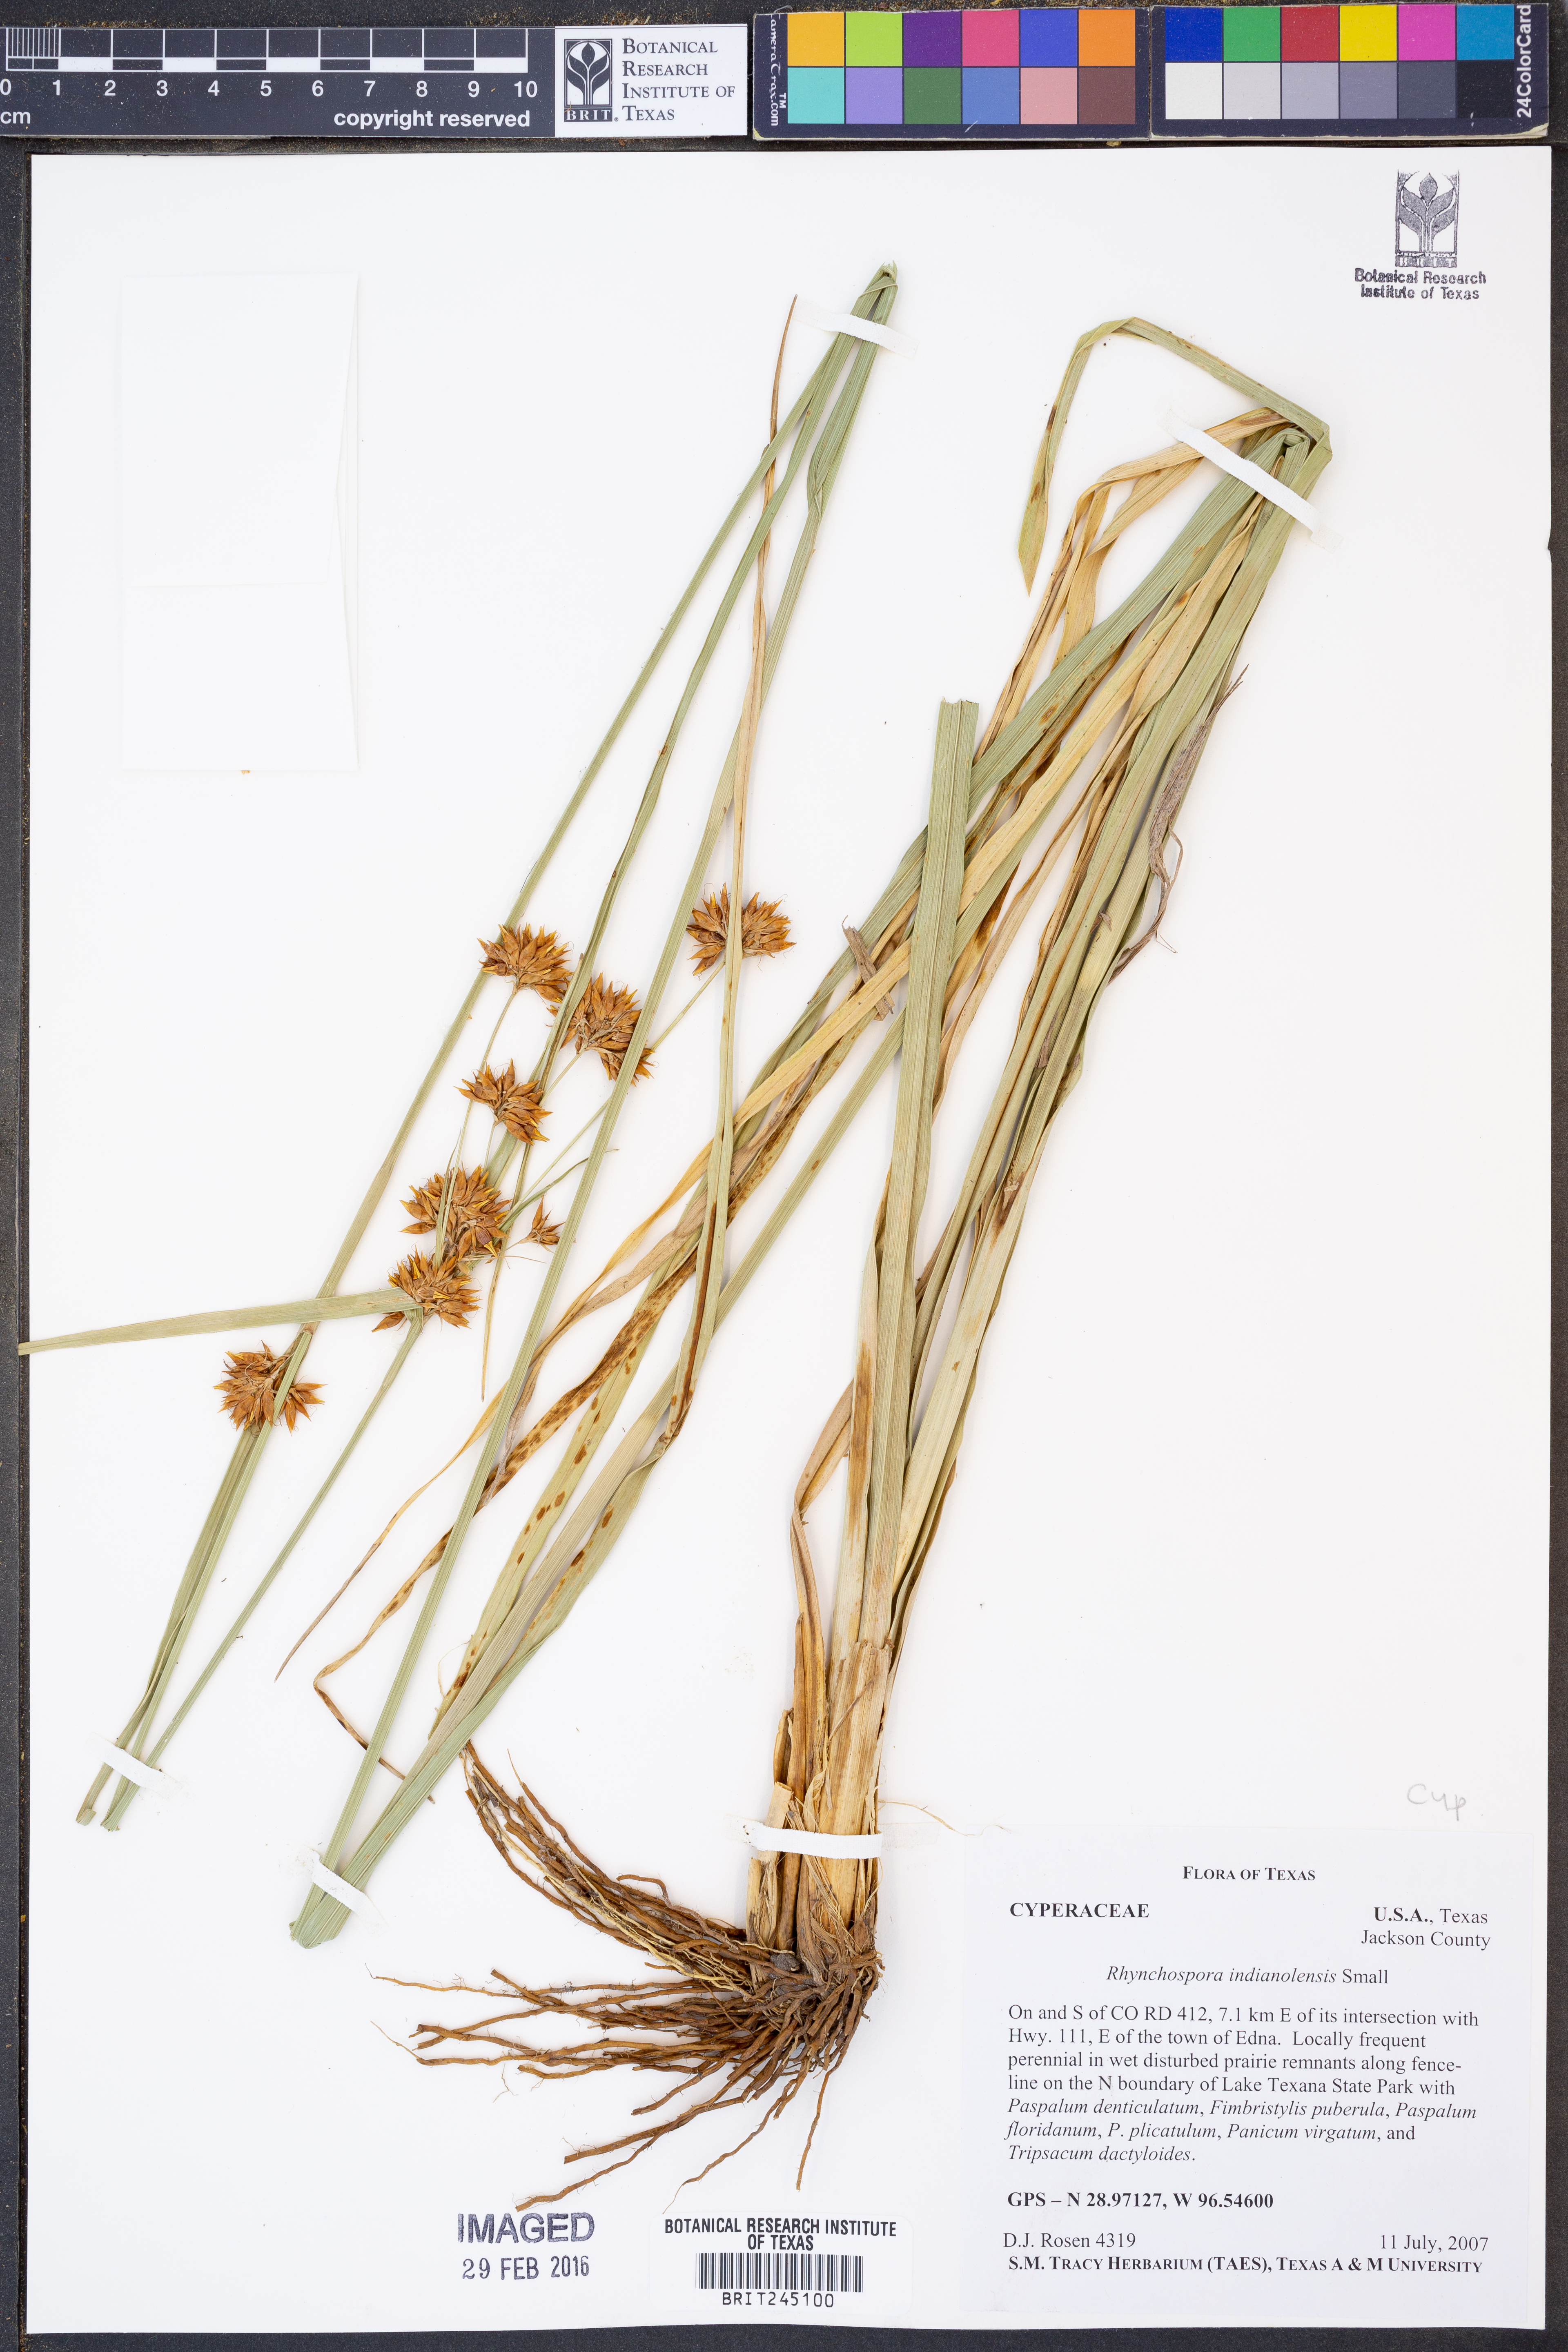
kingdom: Plantae
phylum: Tracheophyta
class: Liliopsida
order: Poales
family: Cyperaceae
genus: Rhynchospora
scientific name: Rhynchospora scutellata
